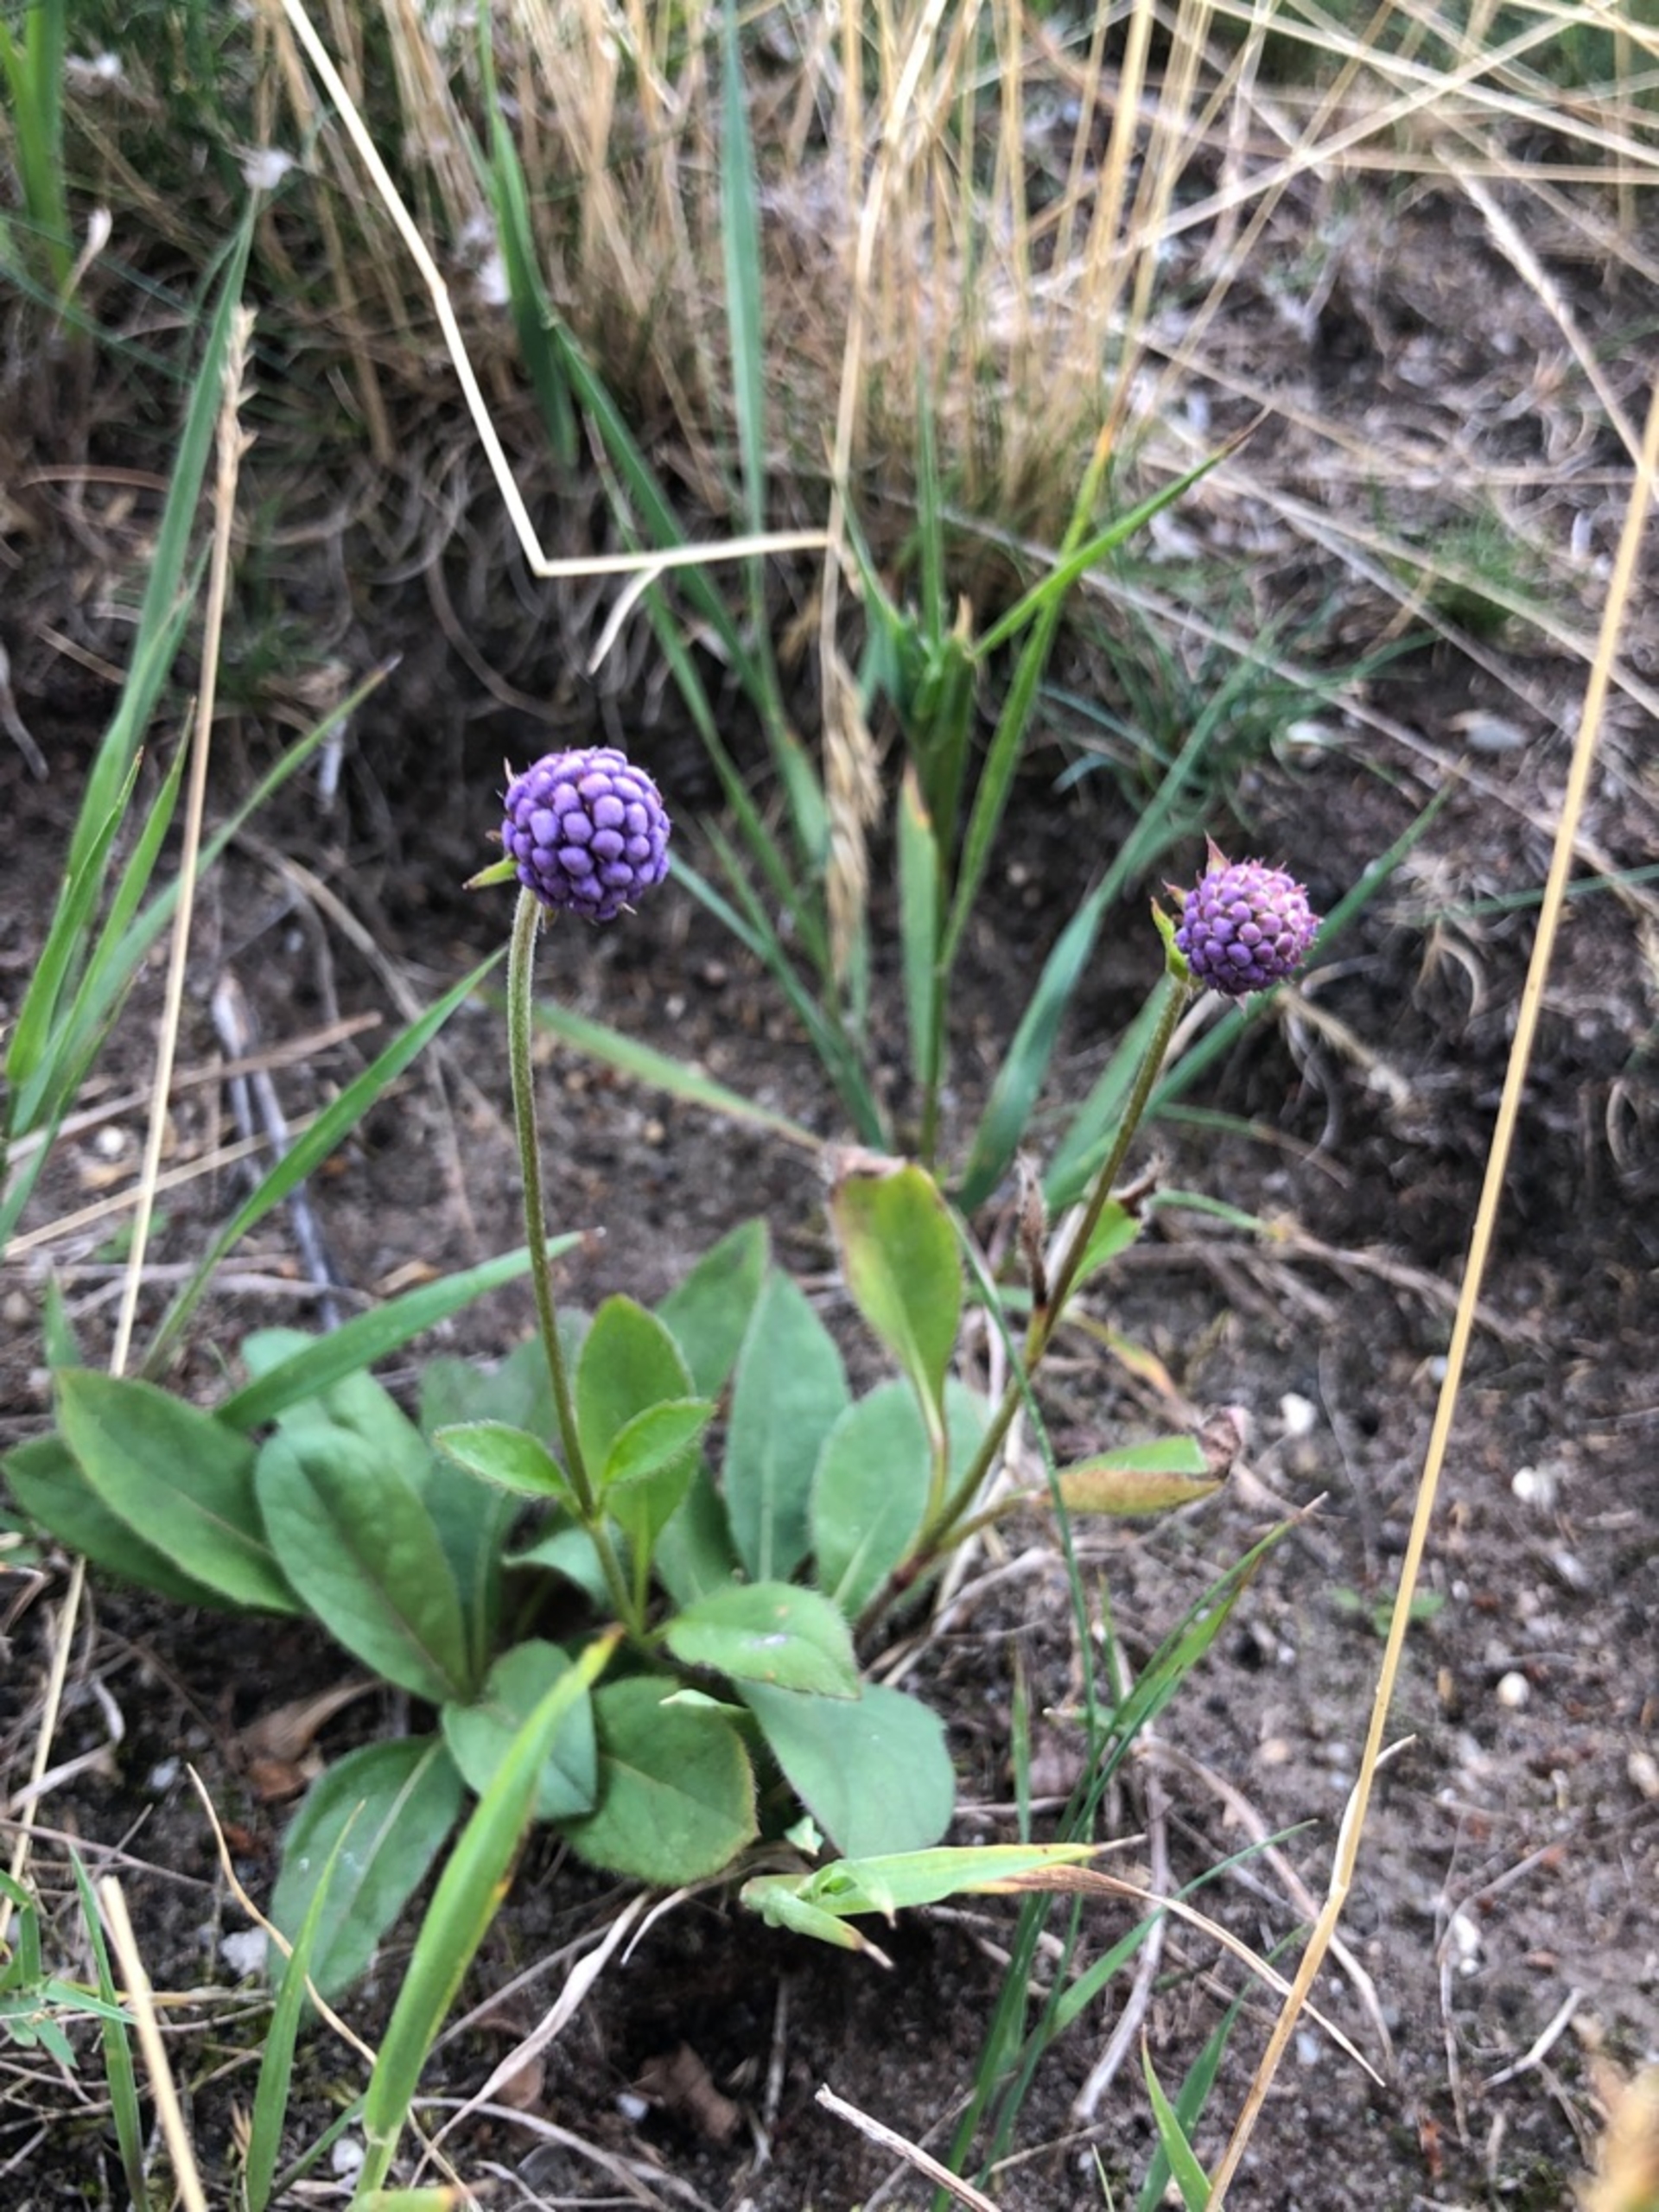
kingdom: Plantae
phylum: Tracheophyta
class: Magnoliopsida
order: Dipsacales
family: Caprifoliaceae
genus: Succisa
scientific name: Succisa pratensis
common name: Djævelsbid
